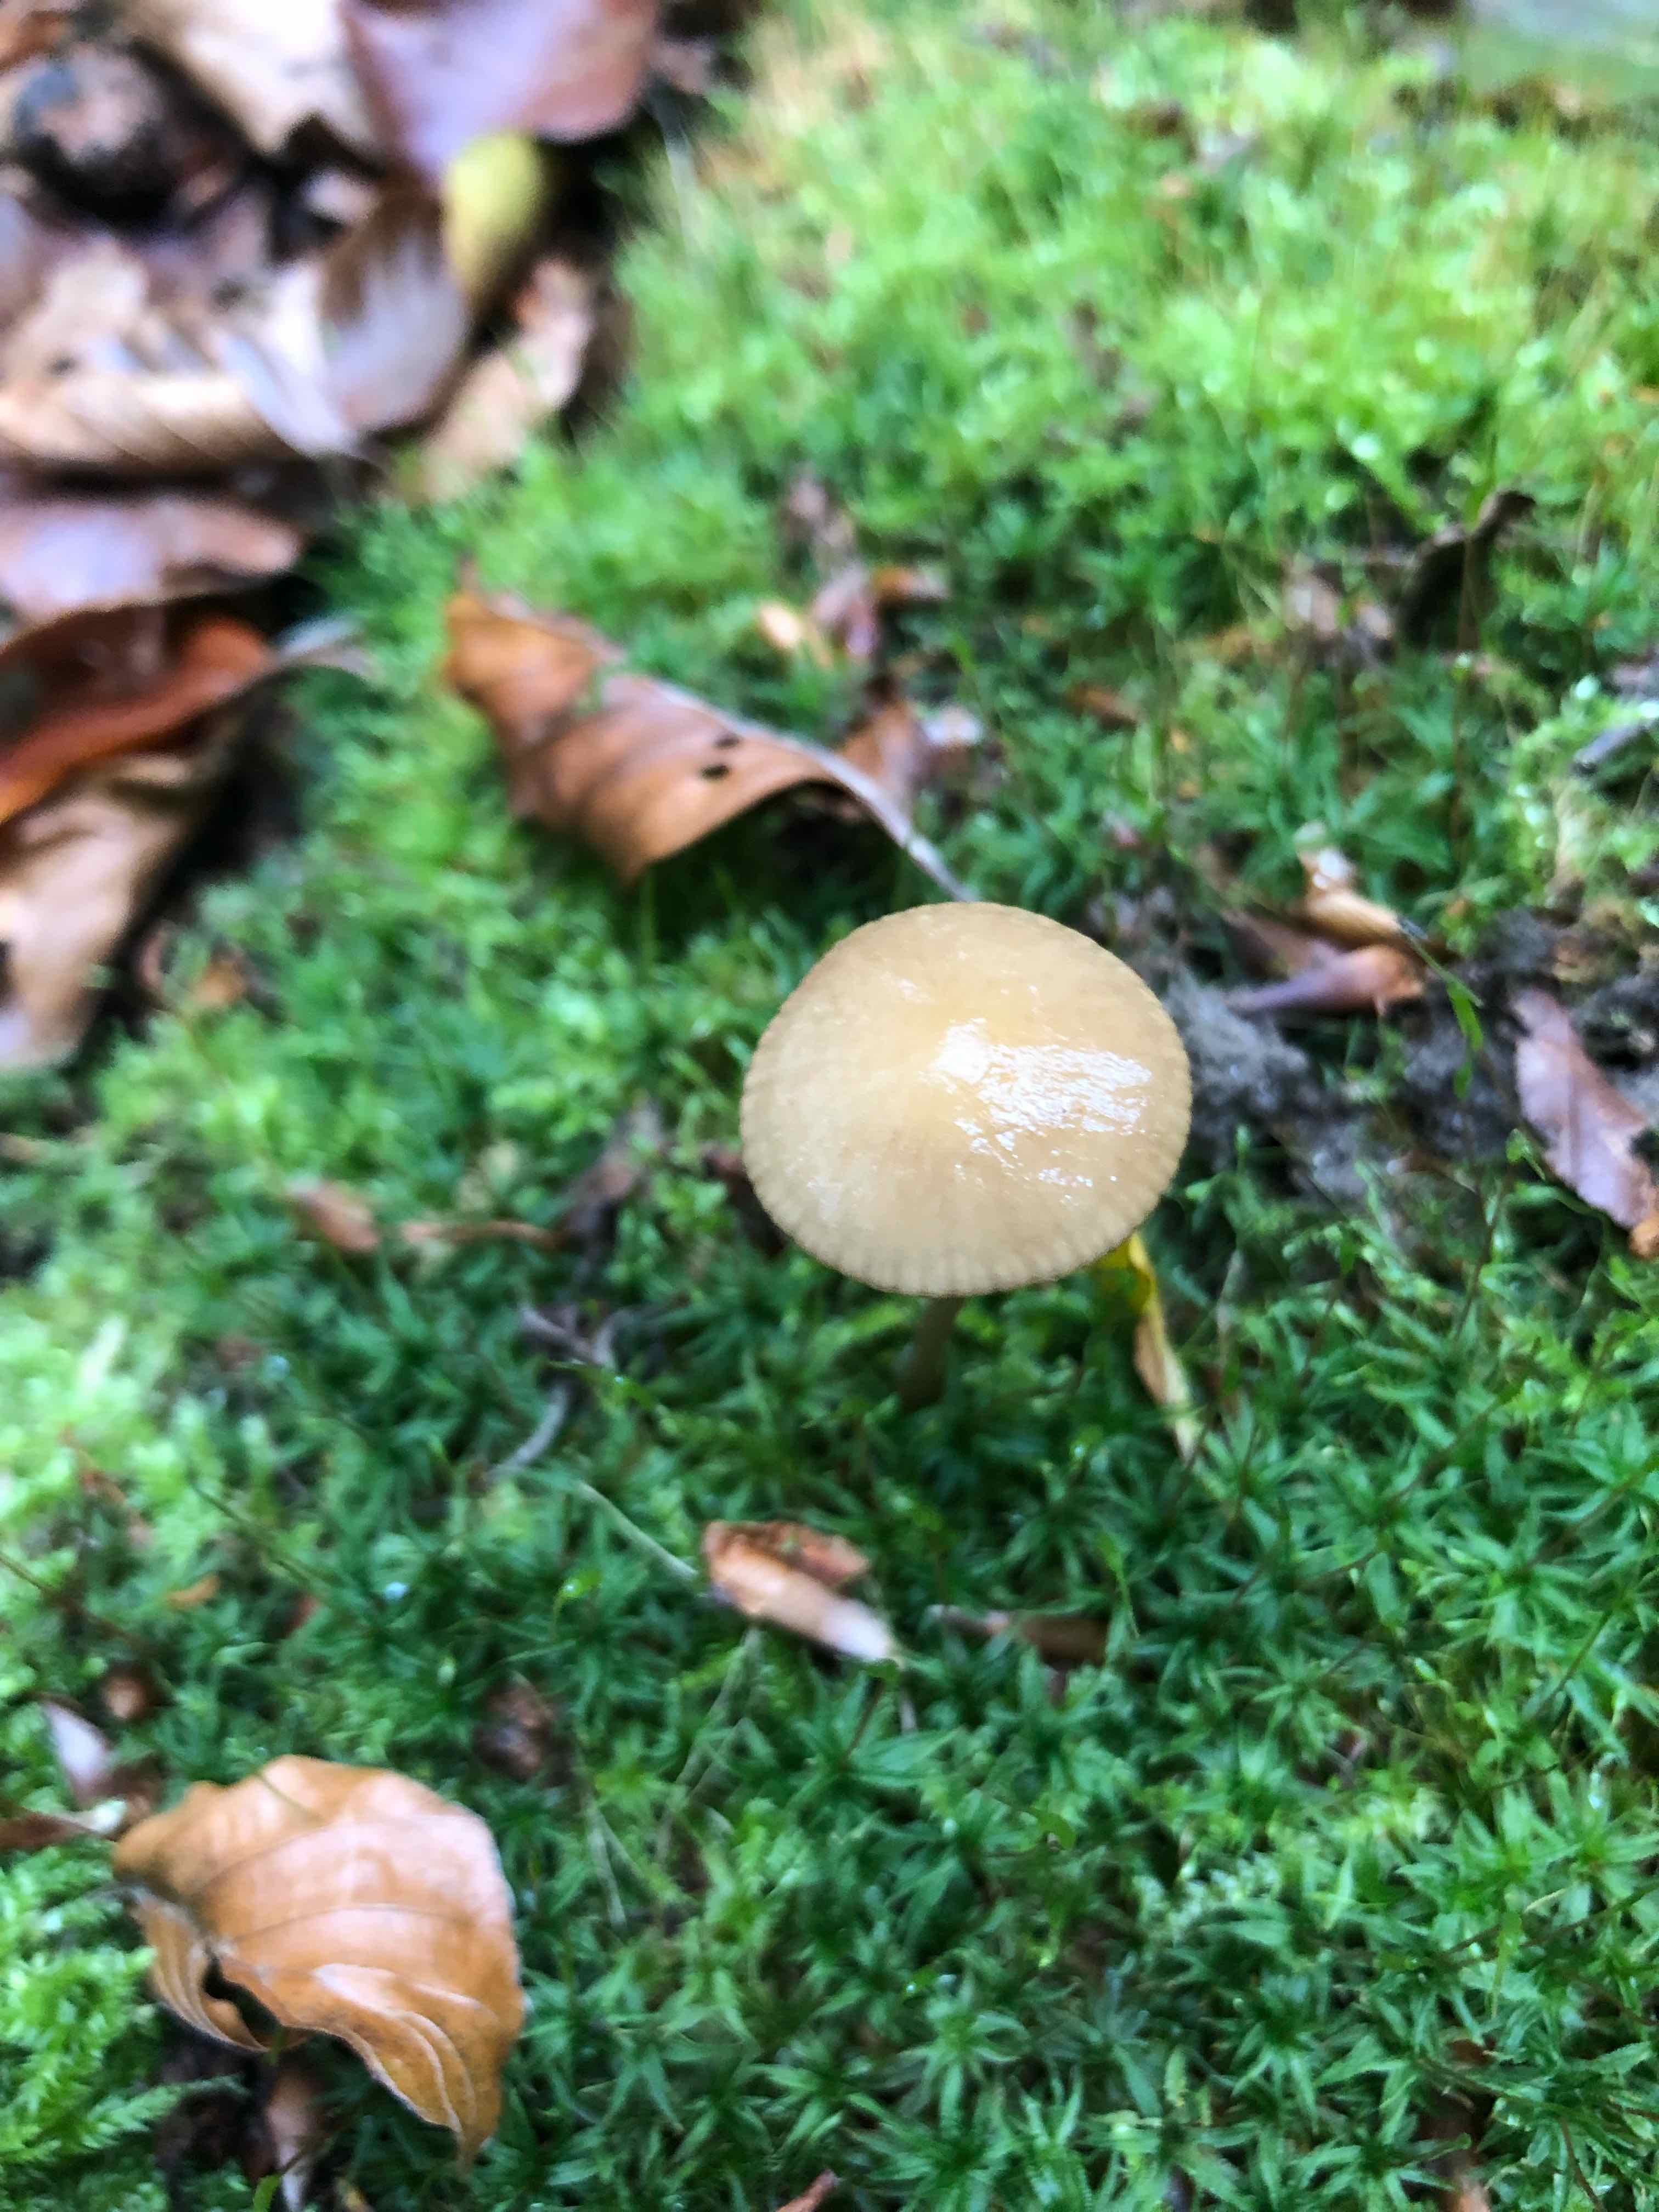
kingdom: Fungi
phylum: Basidiomycota
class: Agaricomycetes
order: Agaricales
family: Physalacriaceae
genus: Hymenopellis
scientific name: Hymenopellis radicata
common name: almindelig pælerodshat
